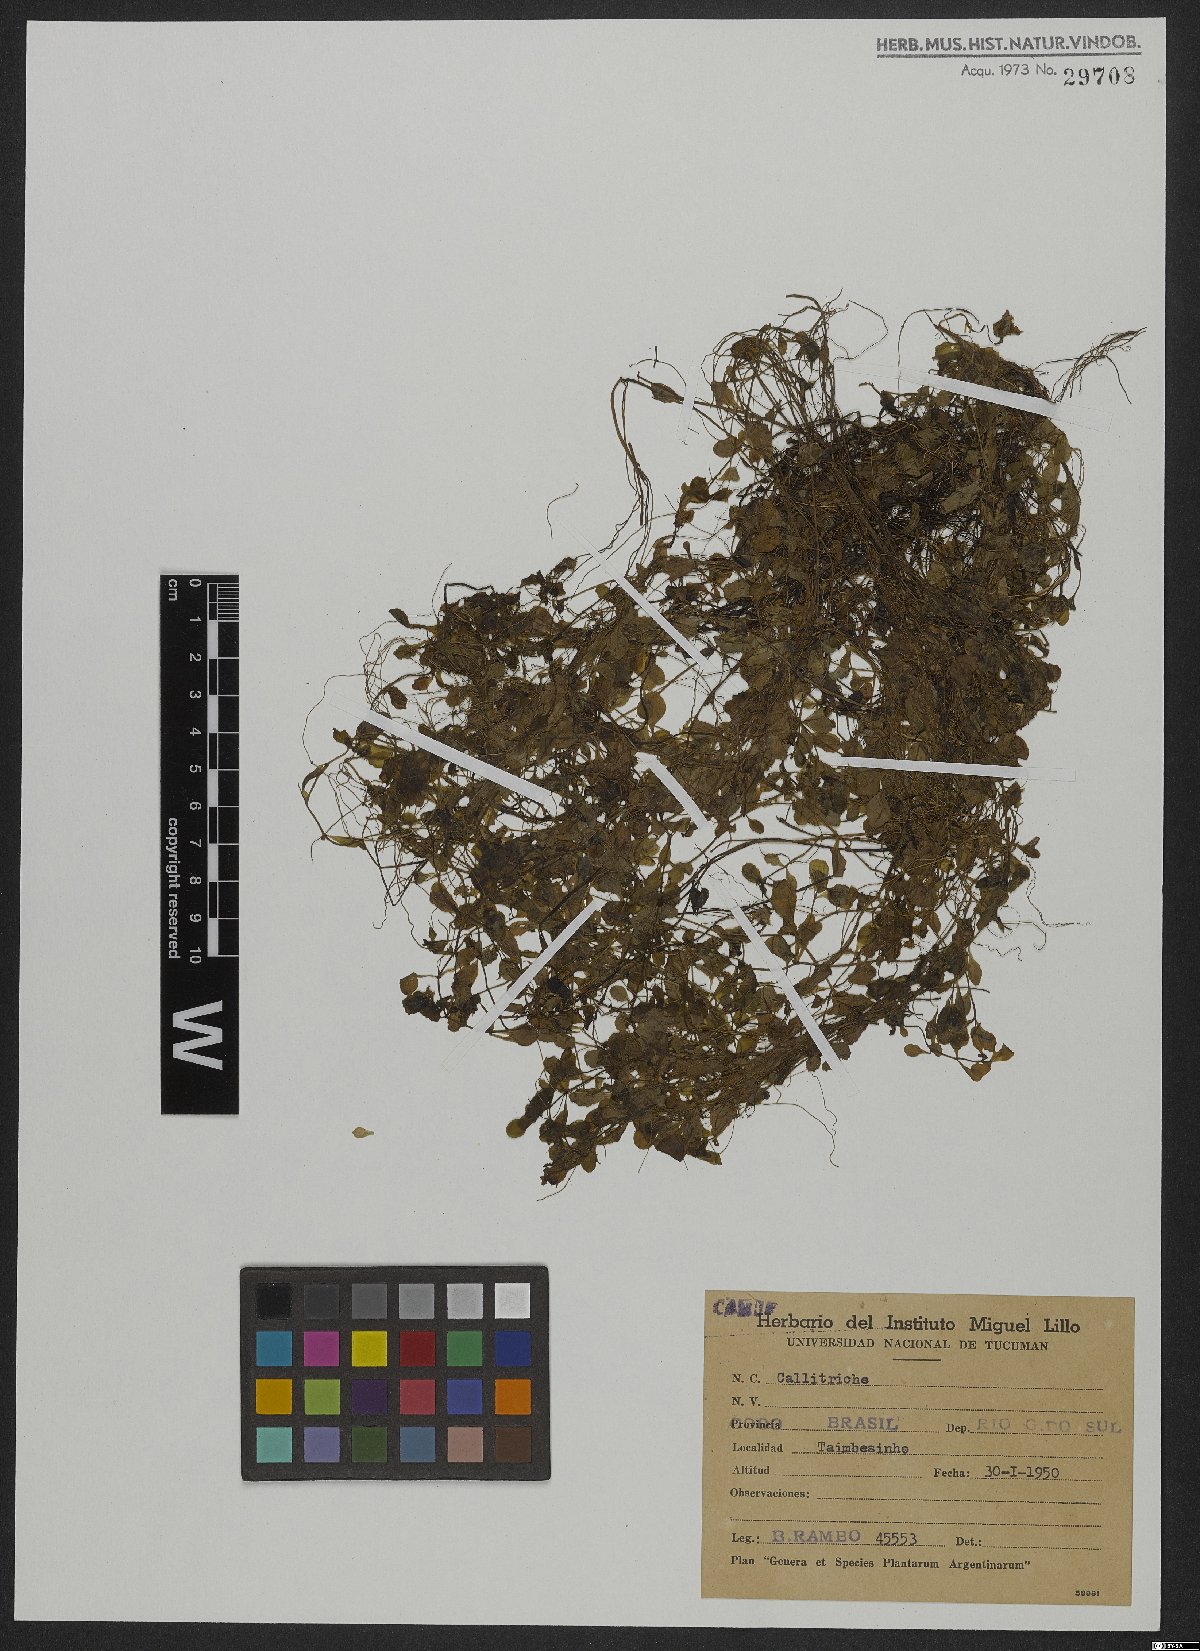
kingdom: Plantae
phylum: Tracheophyta
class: Magnoliopsida
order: Lamiales
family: Plantaginaceae
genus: Callitriche
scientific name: Callitriche
